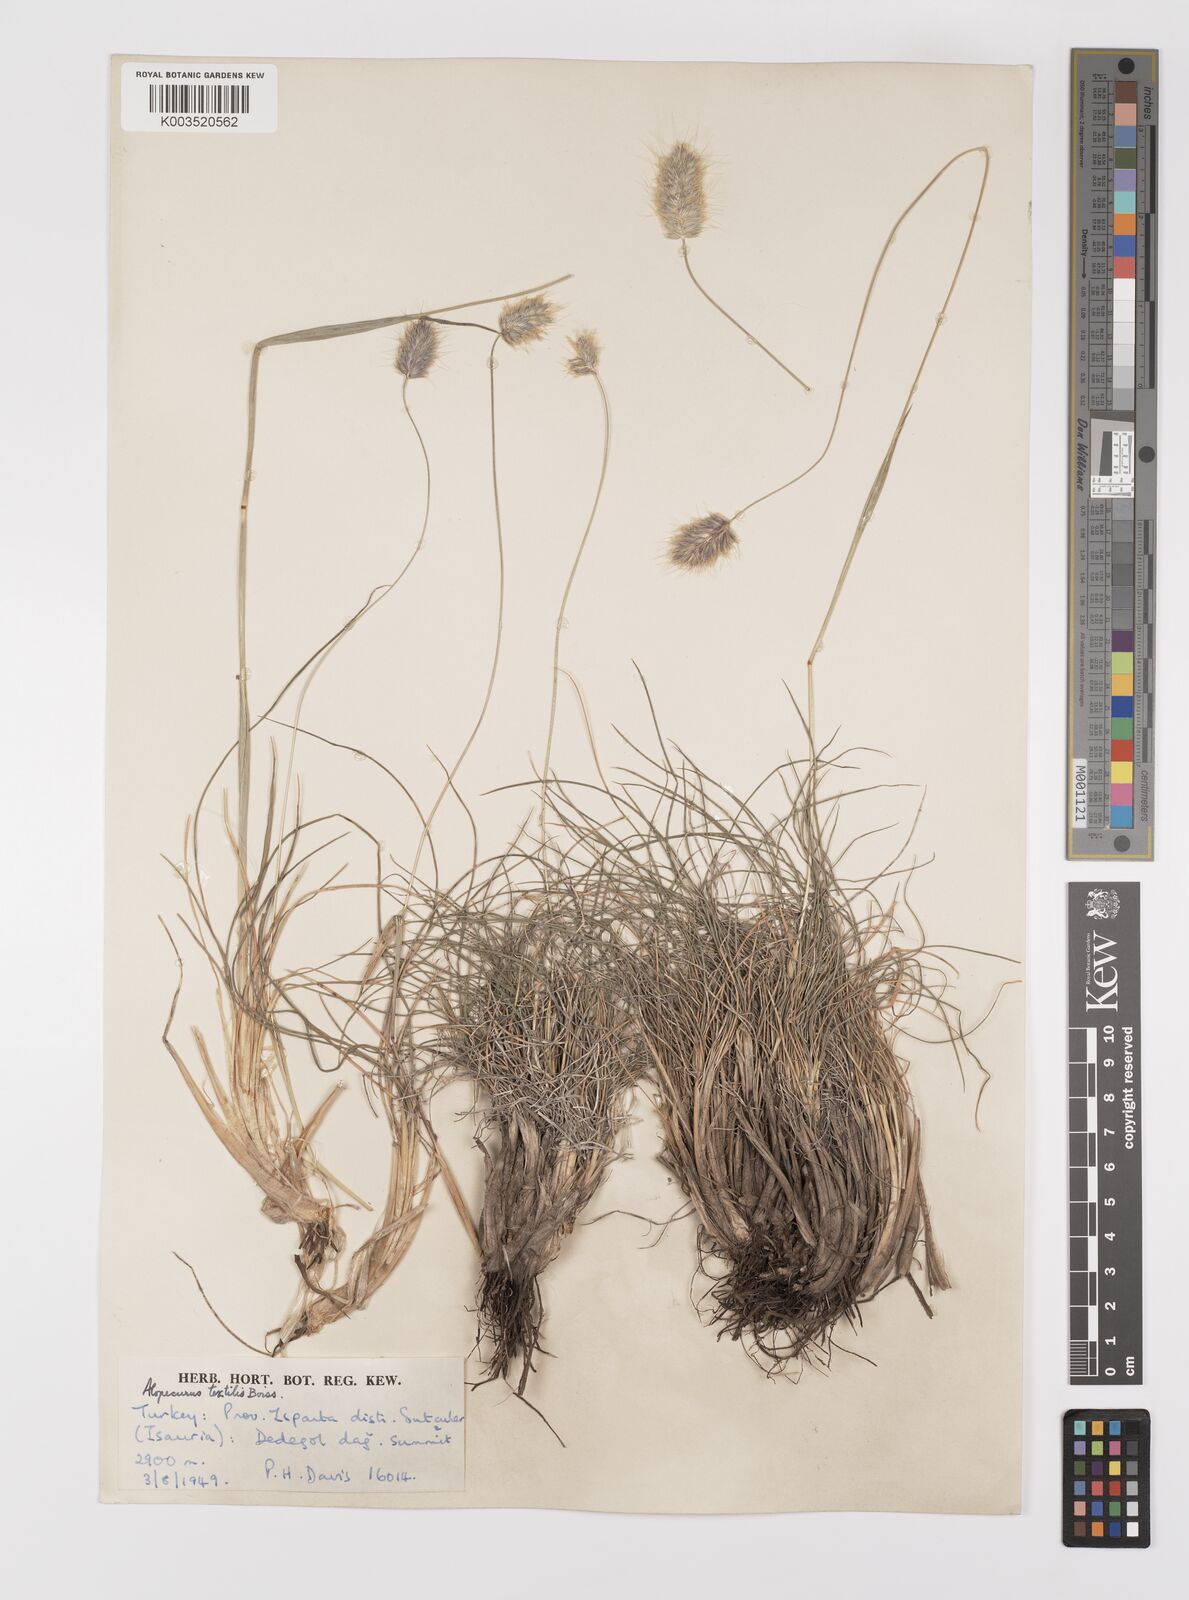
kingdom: Plantae
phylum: Tracheophyta
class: Liliopsida
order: Poales
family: Poaceae
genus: Alopecurus
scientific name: Alopecurus textilis
